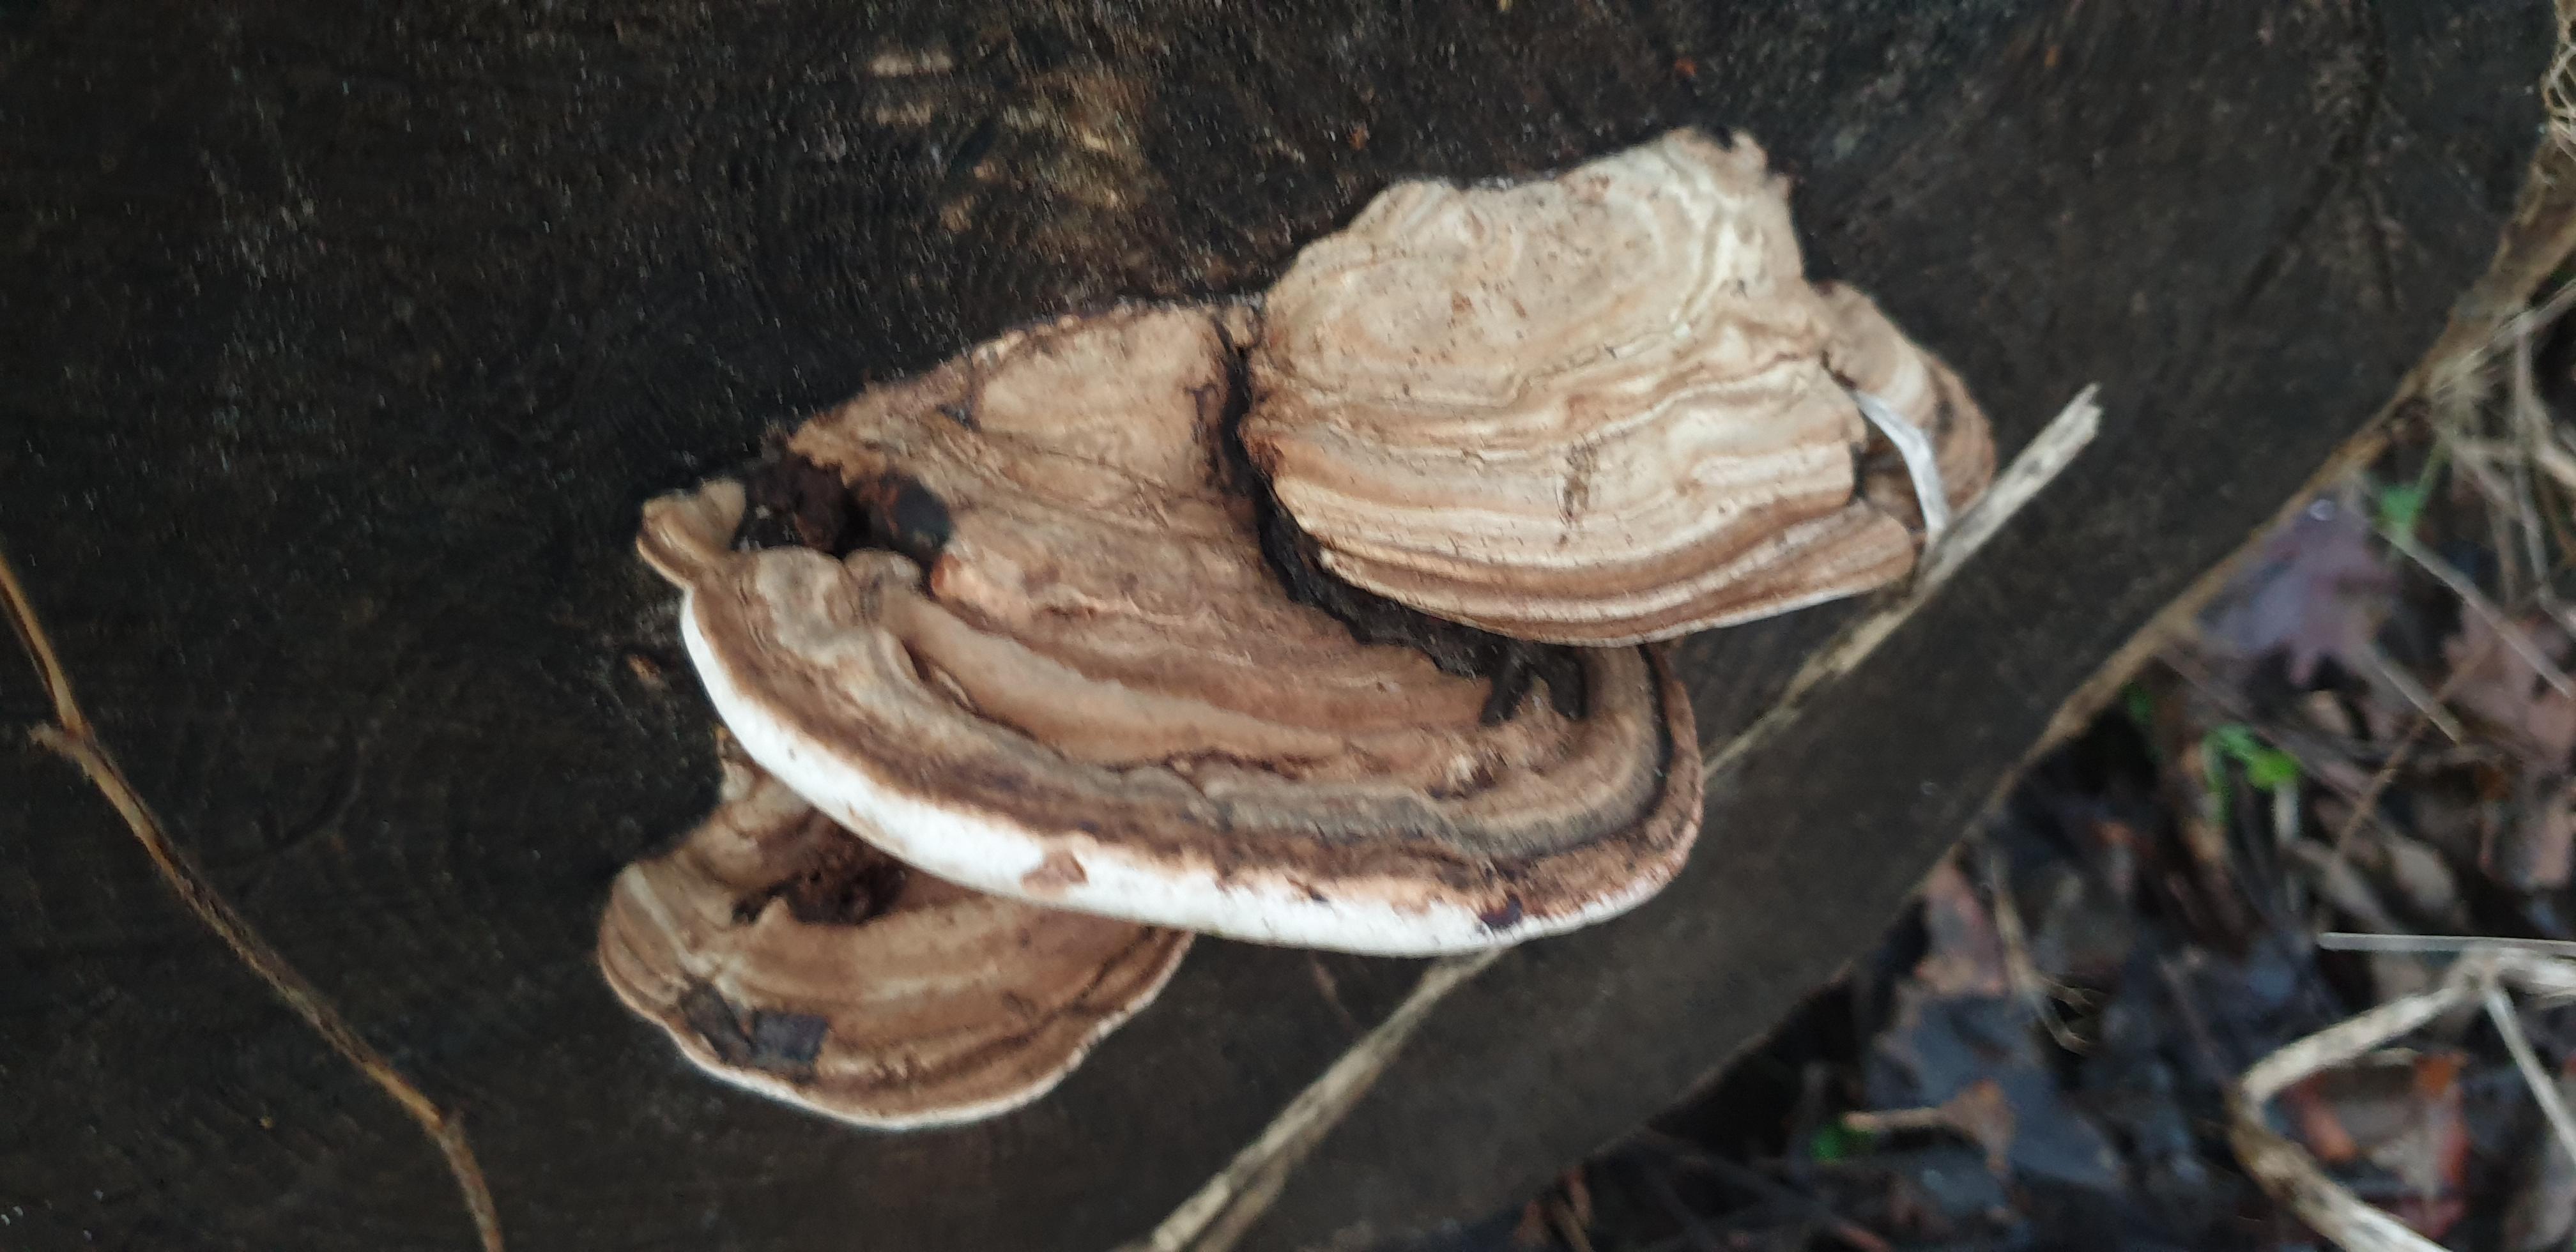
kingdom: Fungi
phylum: Basidiomycota
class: Agaricomycetes
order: Polyporales
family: Polyporaceae
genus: Ganoderma
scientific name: Ganoderma applanatum
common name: flad lakporesvamp
